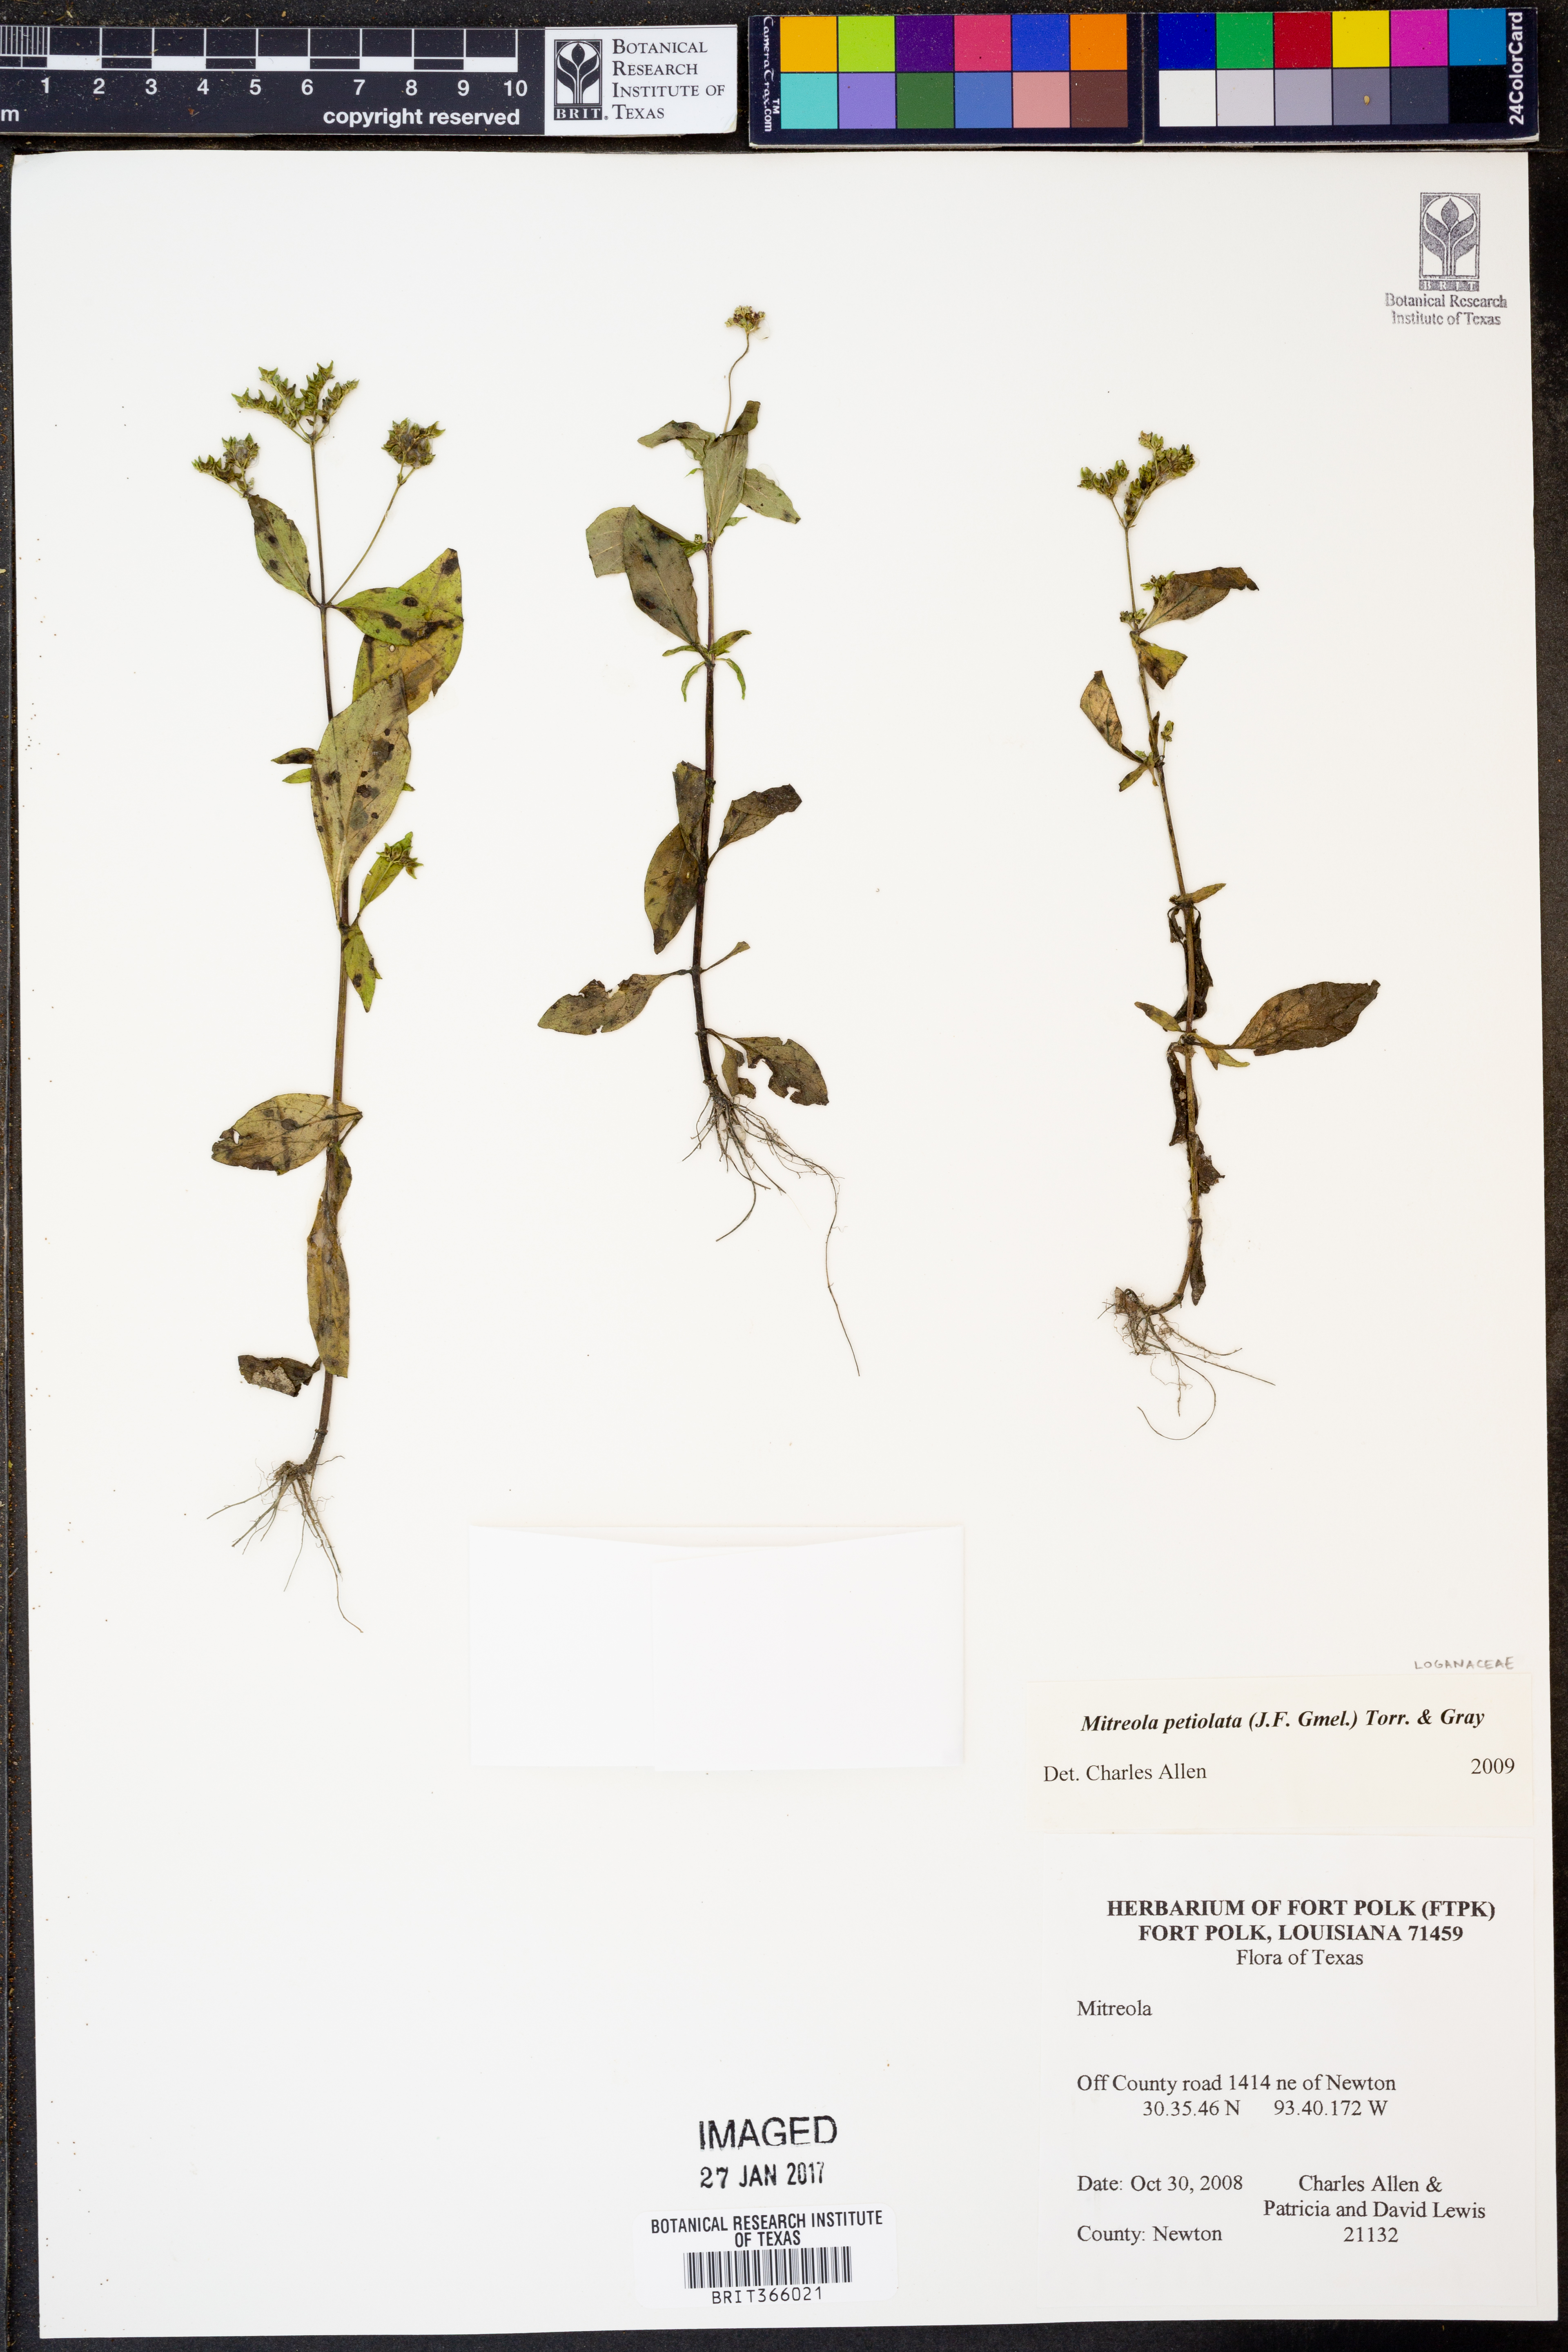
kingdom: Plantae
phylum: Tracheophyta
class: Magnoliopsida
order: Gentianales
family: Loganiaceae
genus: Mitreola
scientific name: Mitreola petiolata
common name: Lax hornpod
